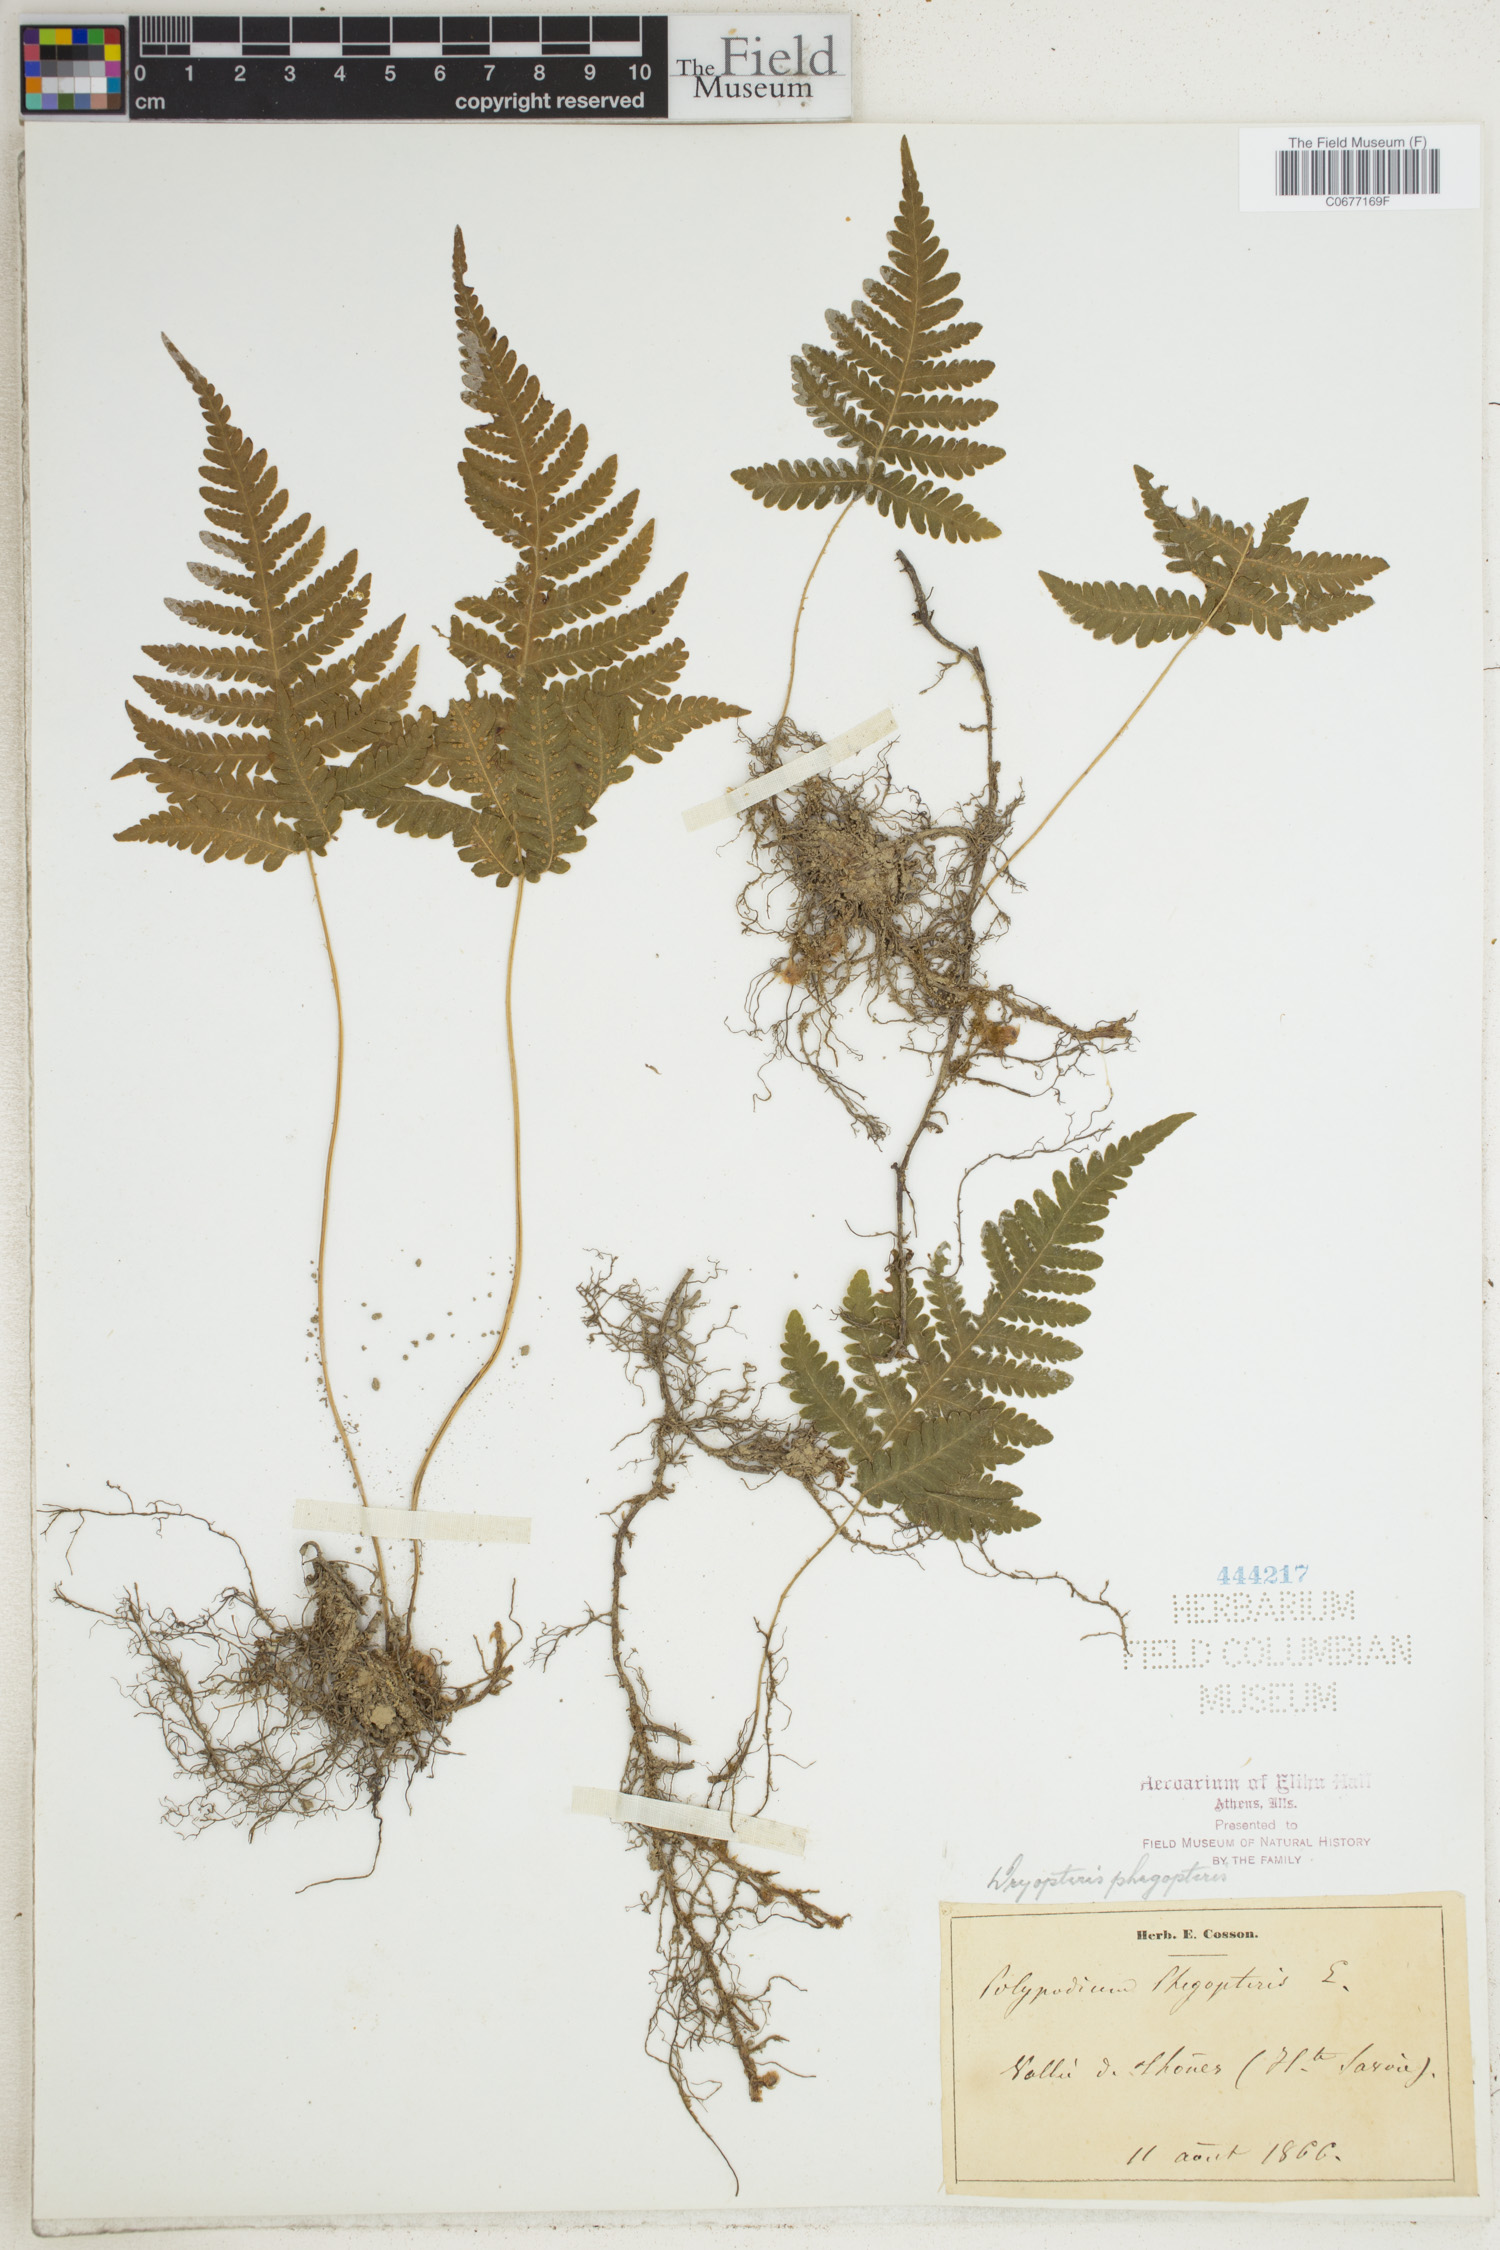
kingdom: Plantae
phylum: Tracheophyta
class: Polypodiopsida
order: Polypodiales
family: Thelypteridaceae
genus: Phegopteris
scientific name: Phegopteris connectilis
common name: Beech fern
